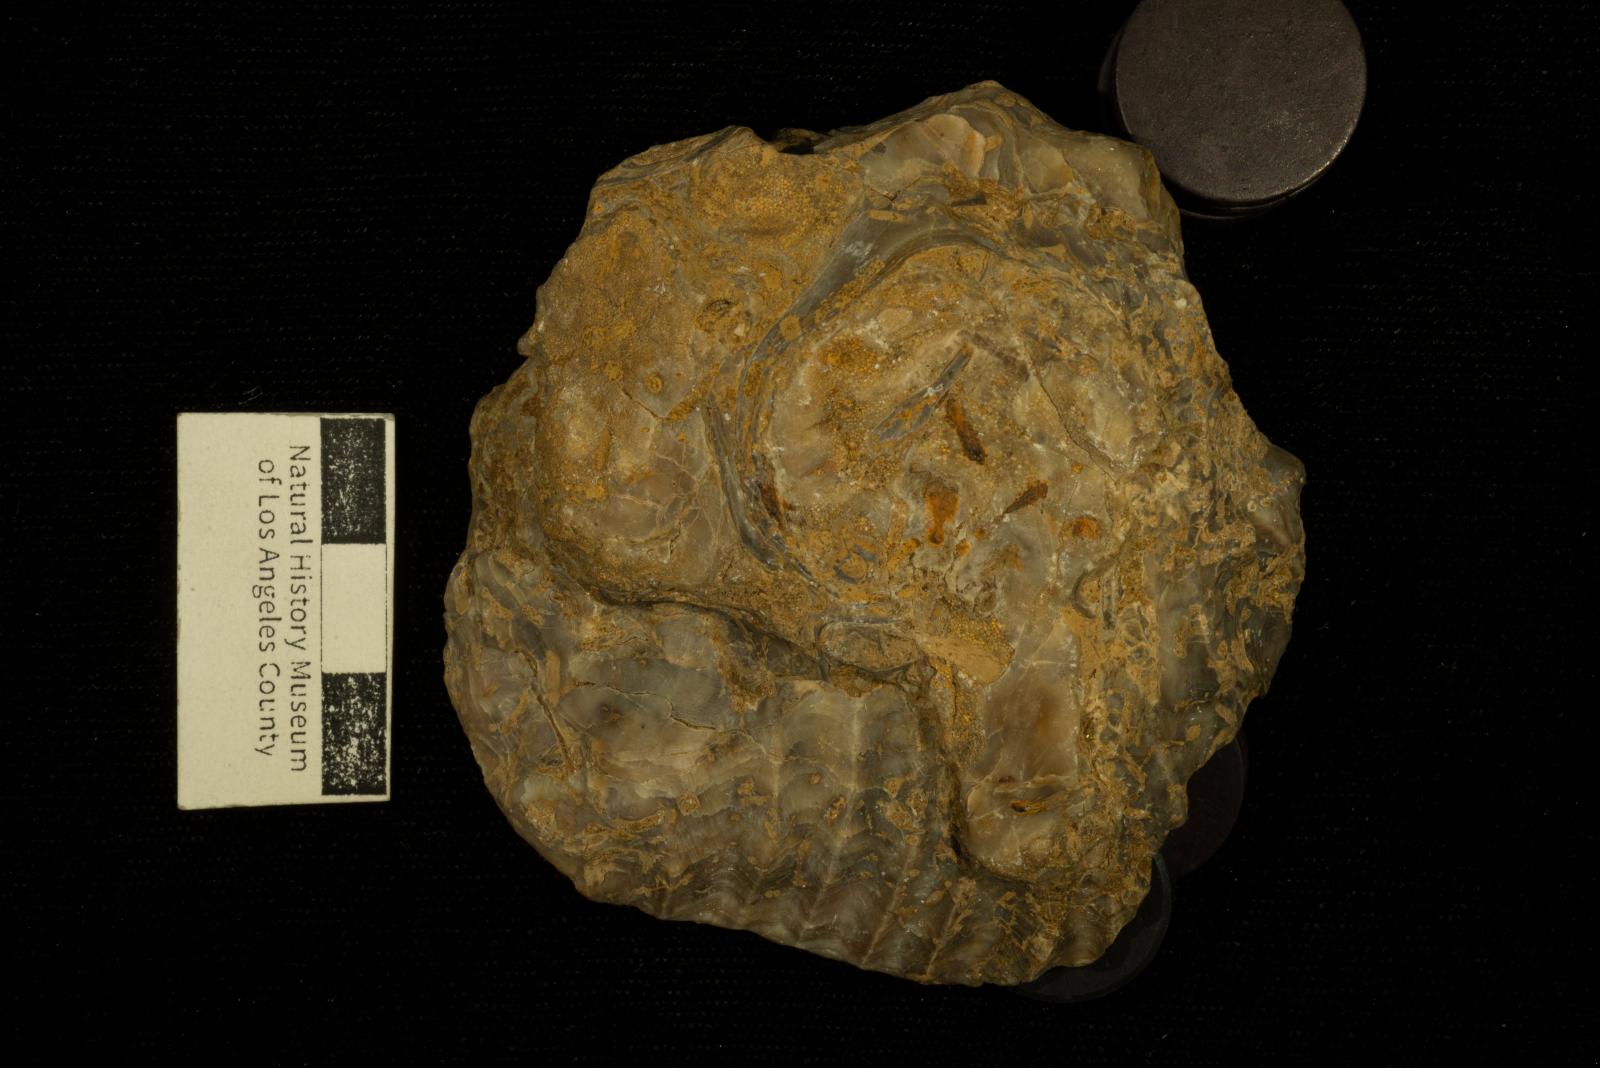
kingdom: Animalia
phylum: Mollusca
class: Bivalvia
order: Ostreida
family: Ostreidae
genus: Oscillopha
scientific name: Oscillopha
